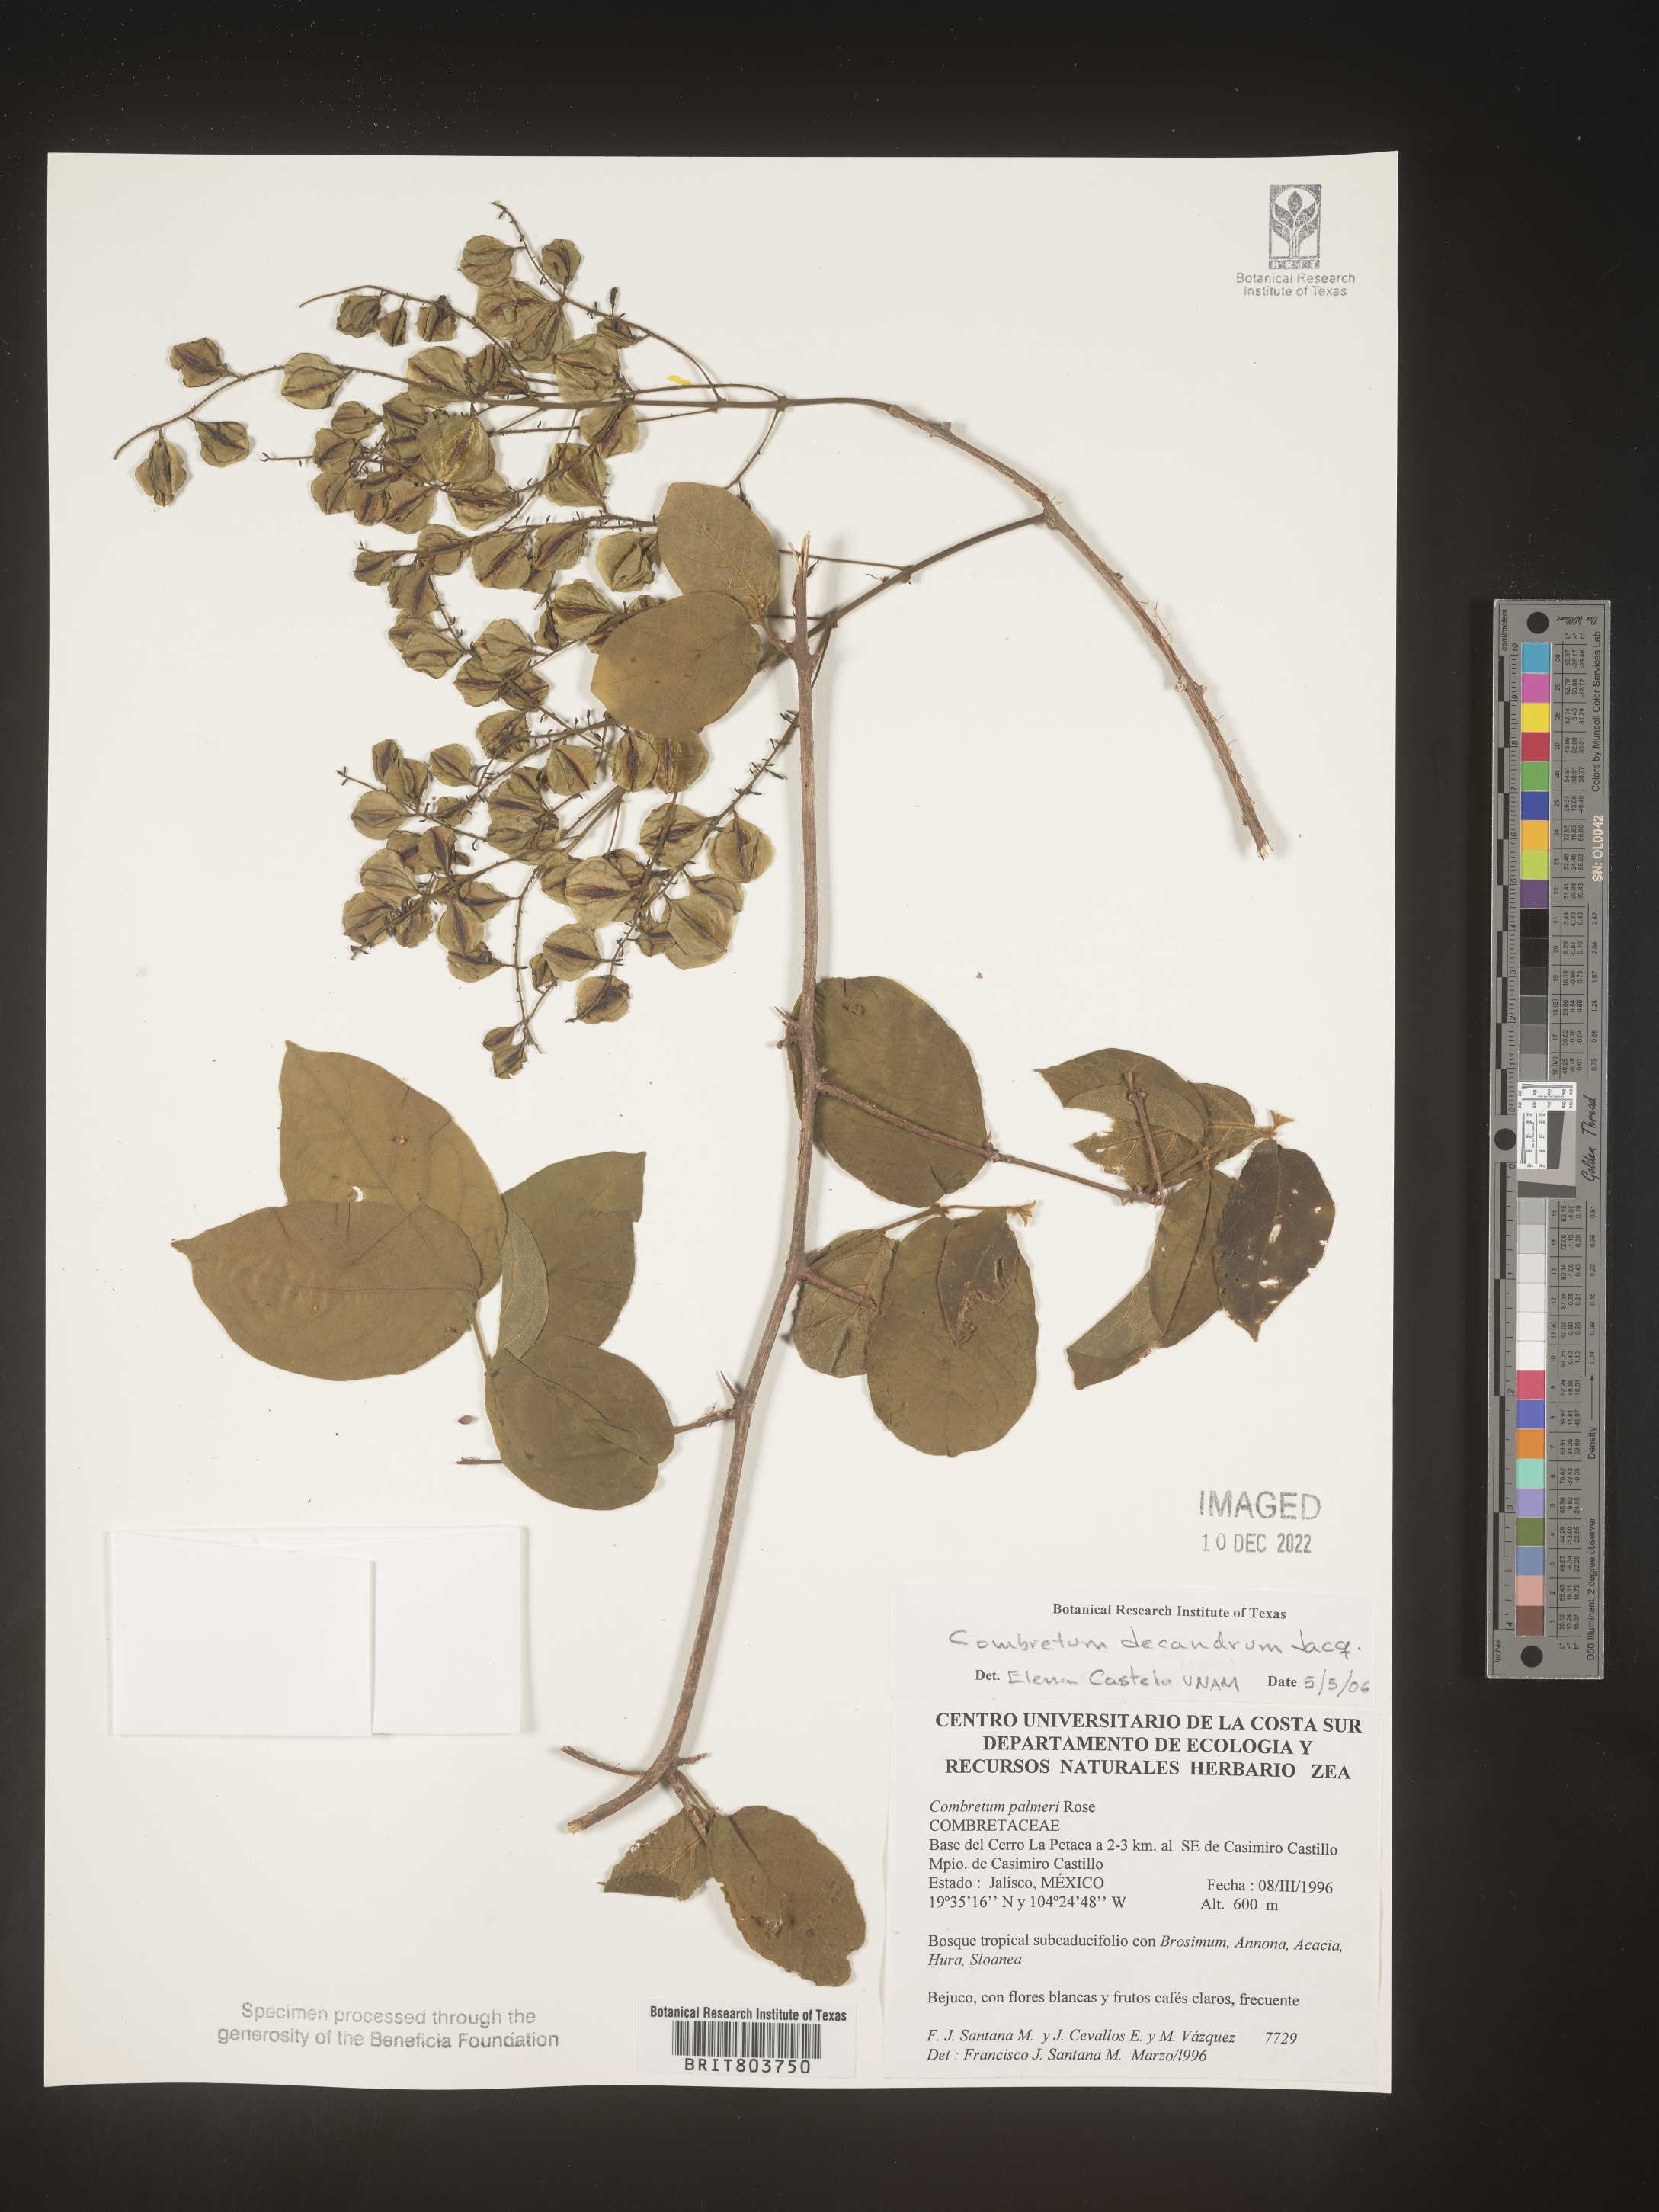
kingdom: Plantae
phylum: Tracheophyta
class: Magnoliopsida
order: Myrtales
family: Combretaceae
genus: Combretum
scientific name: Combretum
